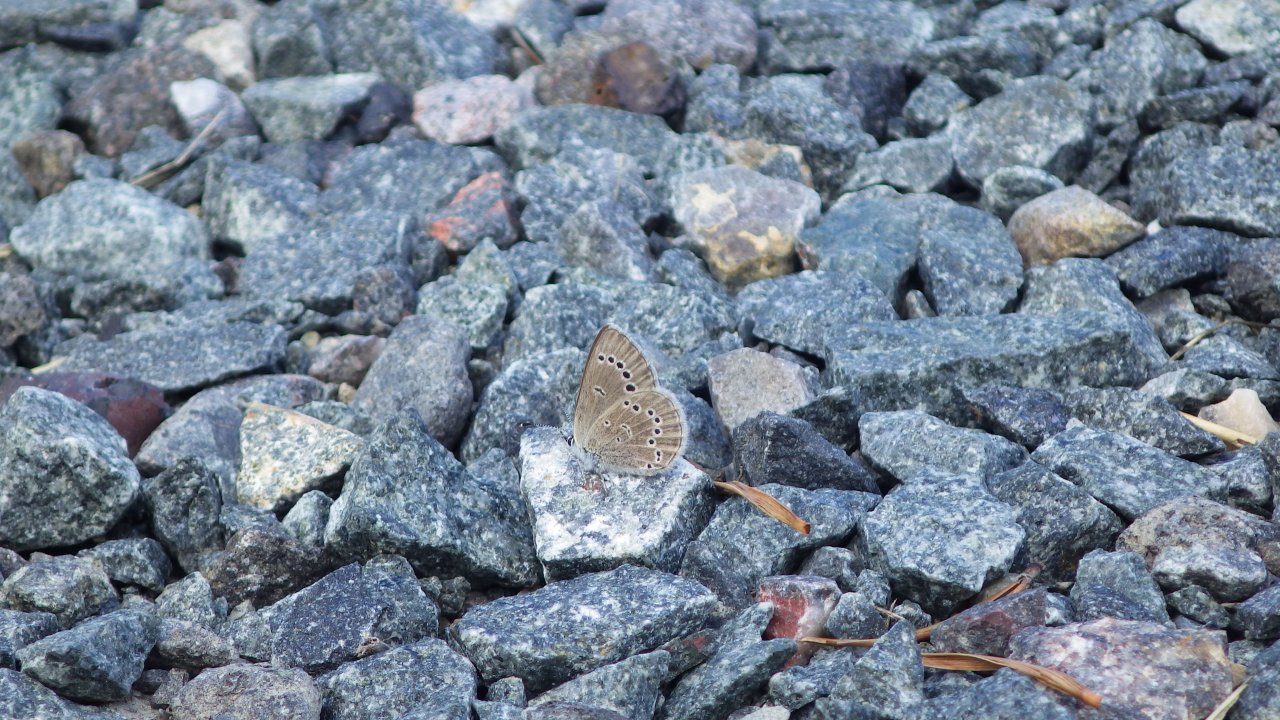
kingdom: Animalia
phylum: Arthropoda
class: Insecta
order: Lepidoptera
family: Lycaenidae
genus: Glaucopsyche
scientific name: Glaucopsyche lygdamus
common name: Silvery Blue
